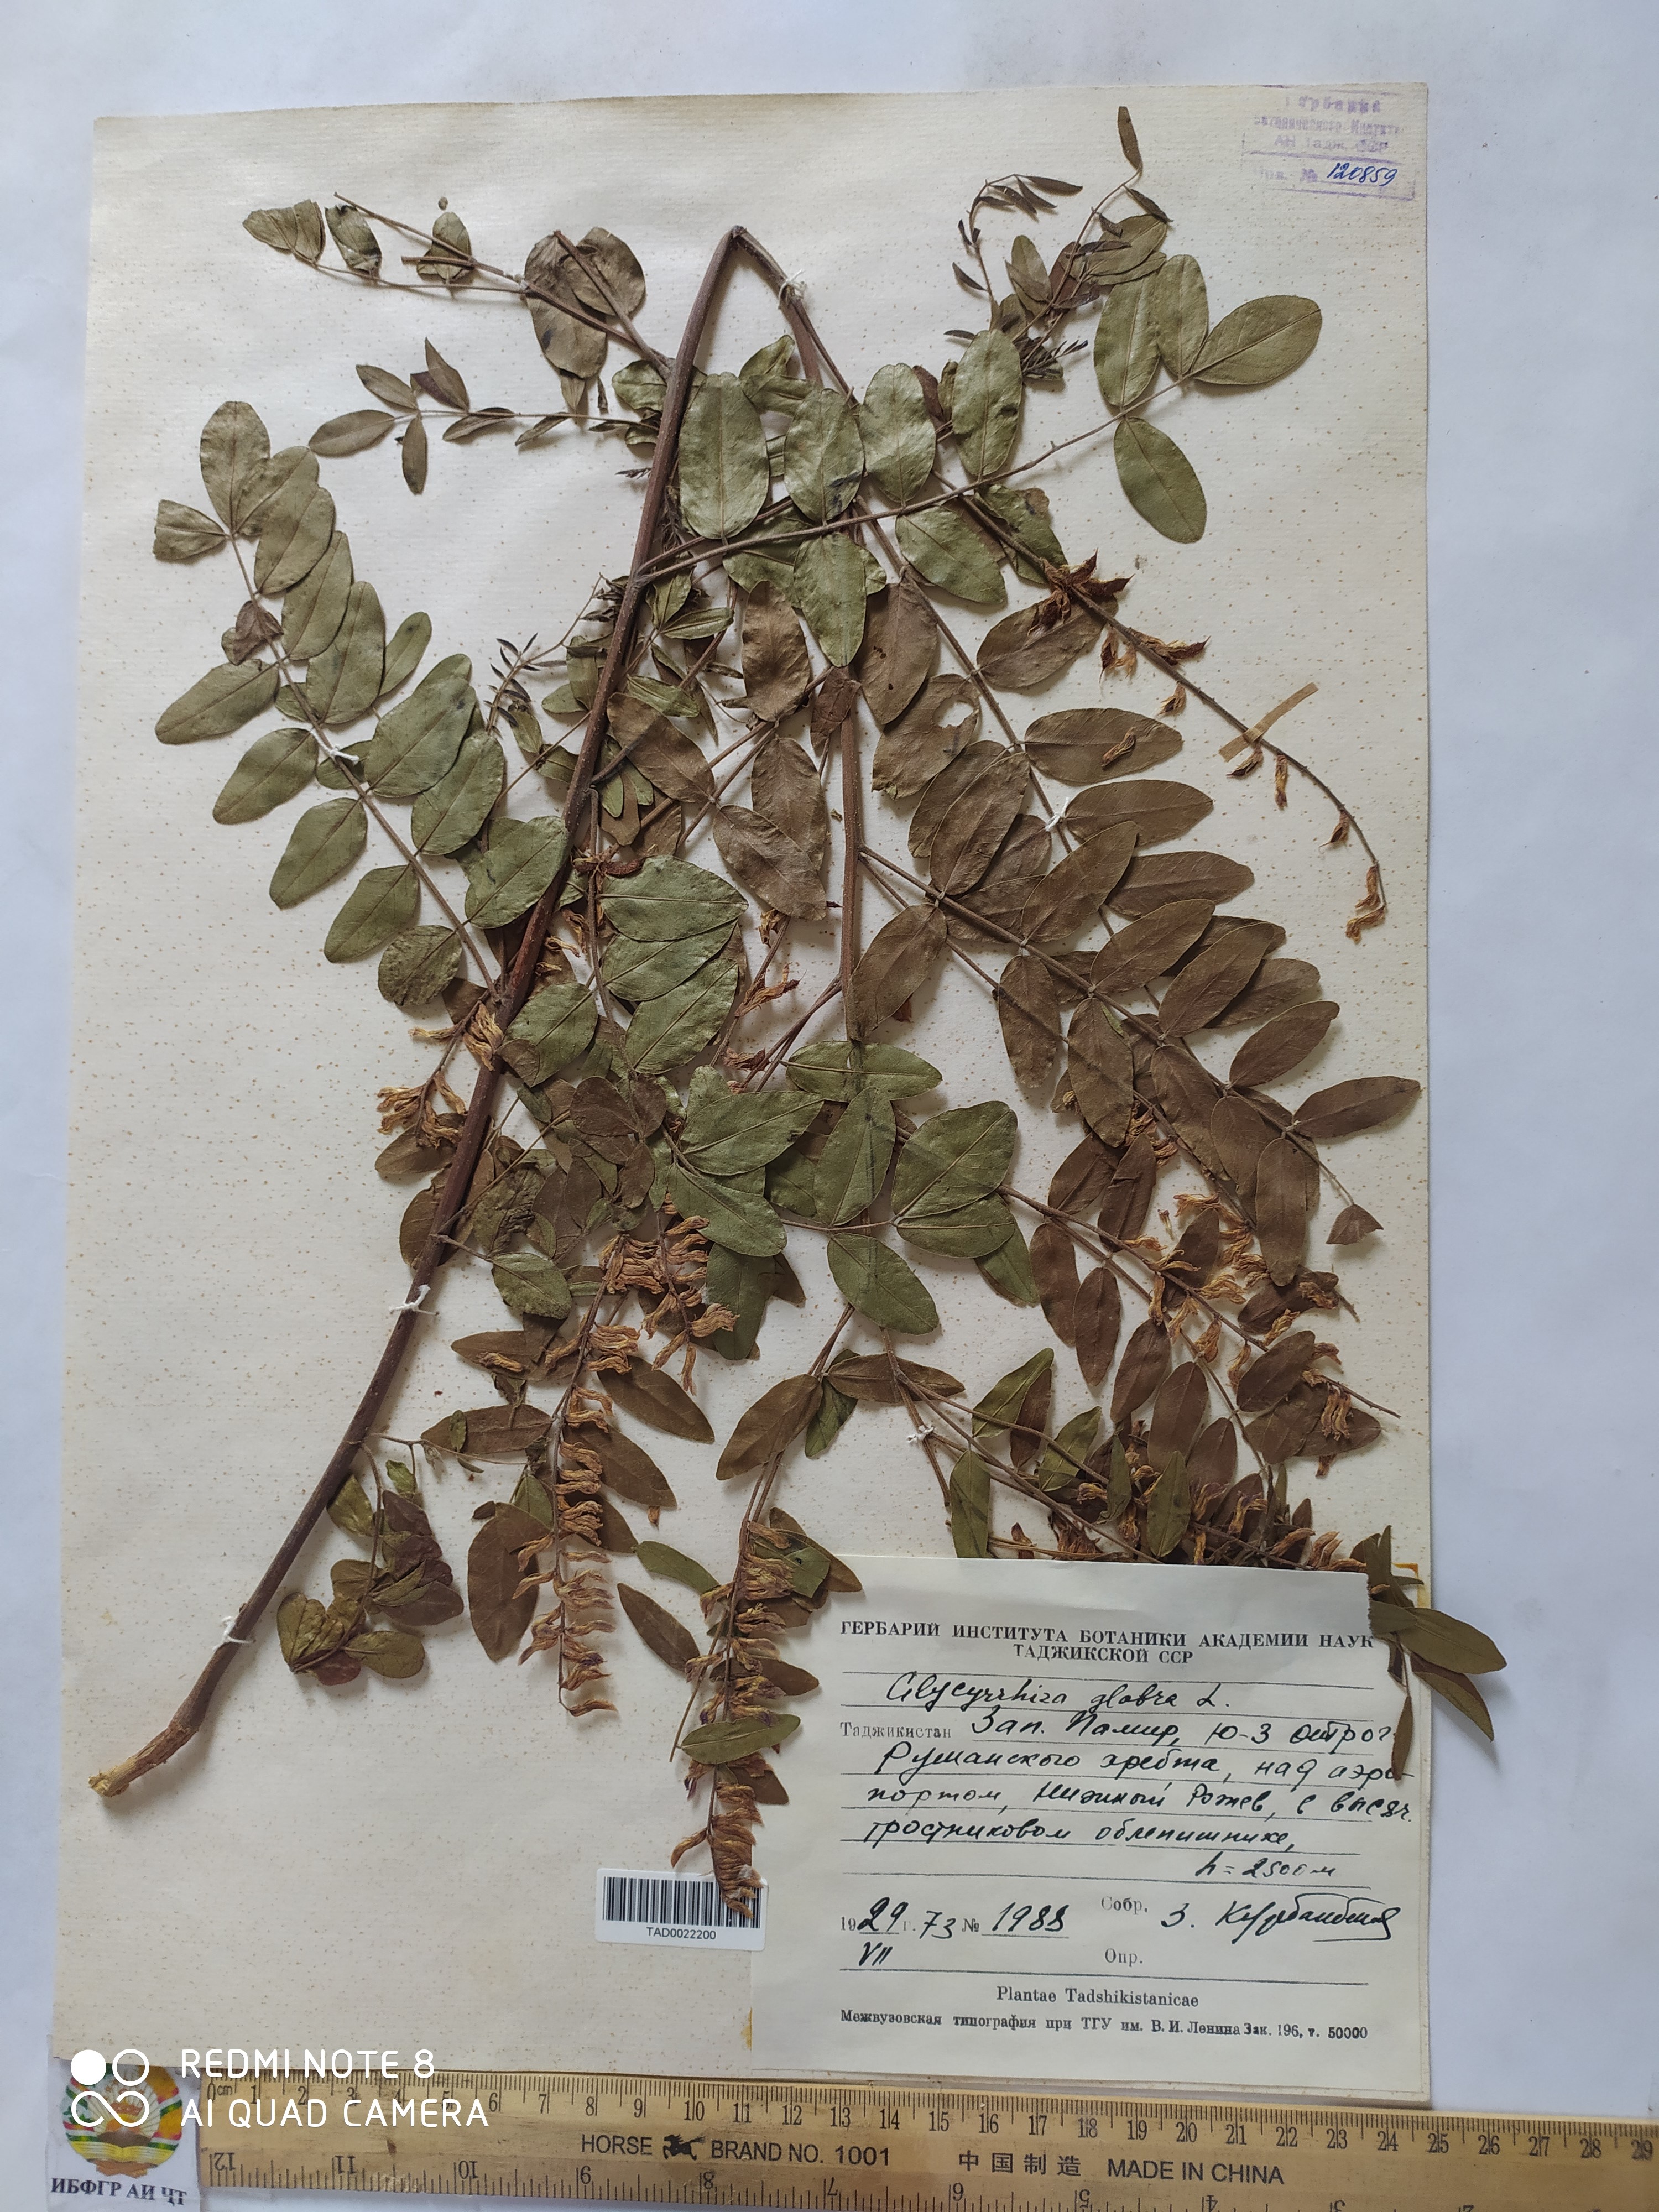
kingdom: Plantae
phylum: Tracheophyta
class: Magnoliopsida
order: Fabales
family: Fabaceae
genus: Glycyrrhiza
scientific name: Glycyrrhiza glabra
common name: Liquorice
